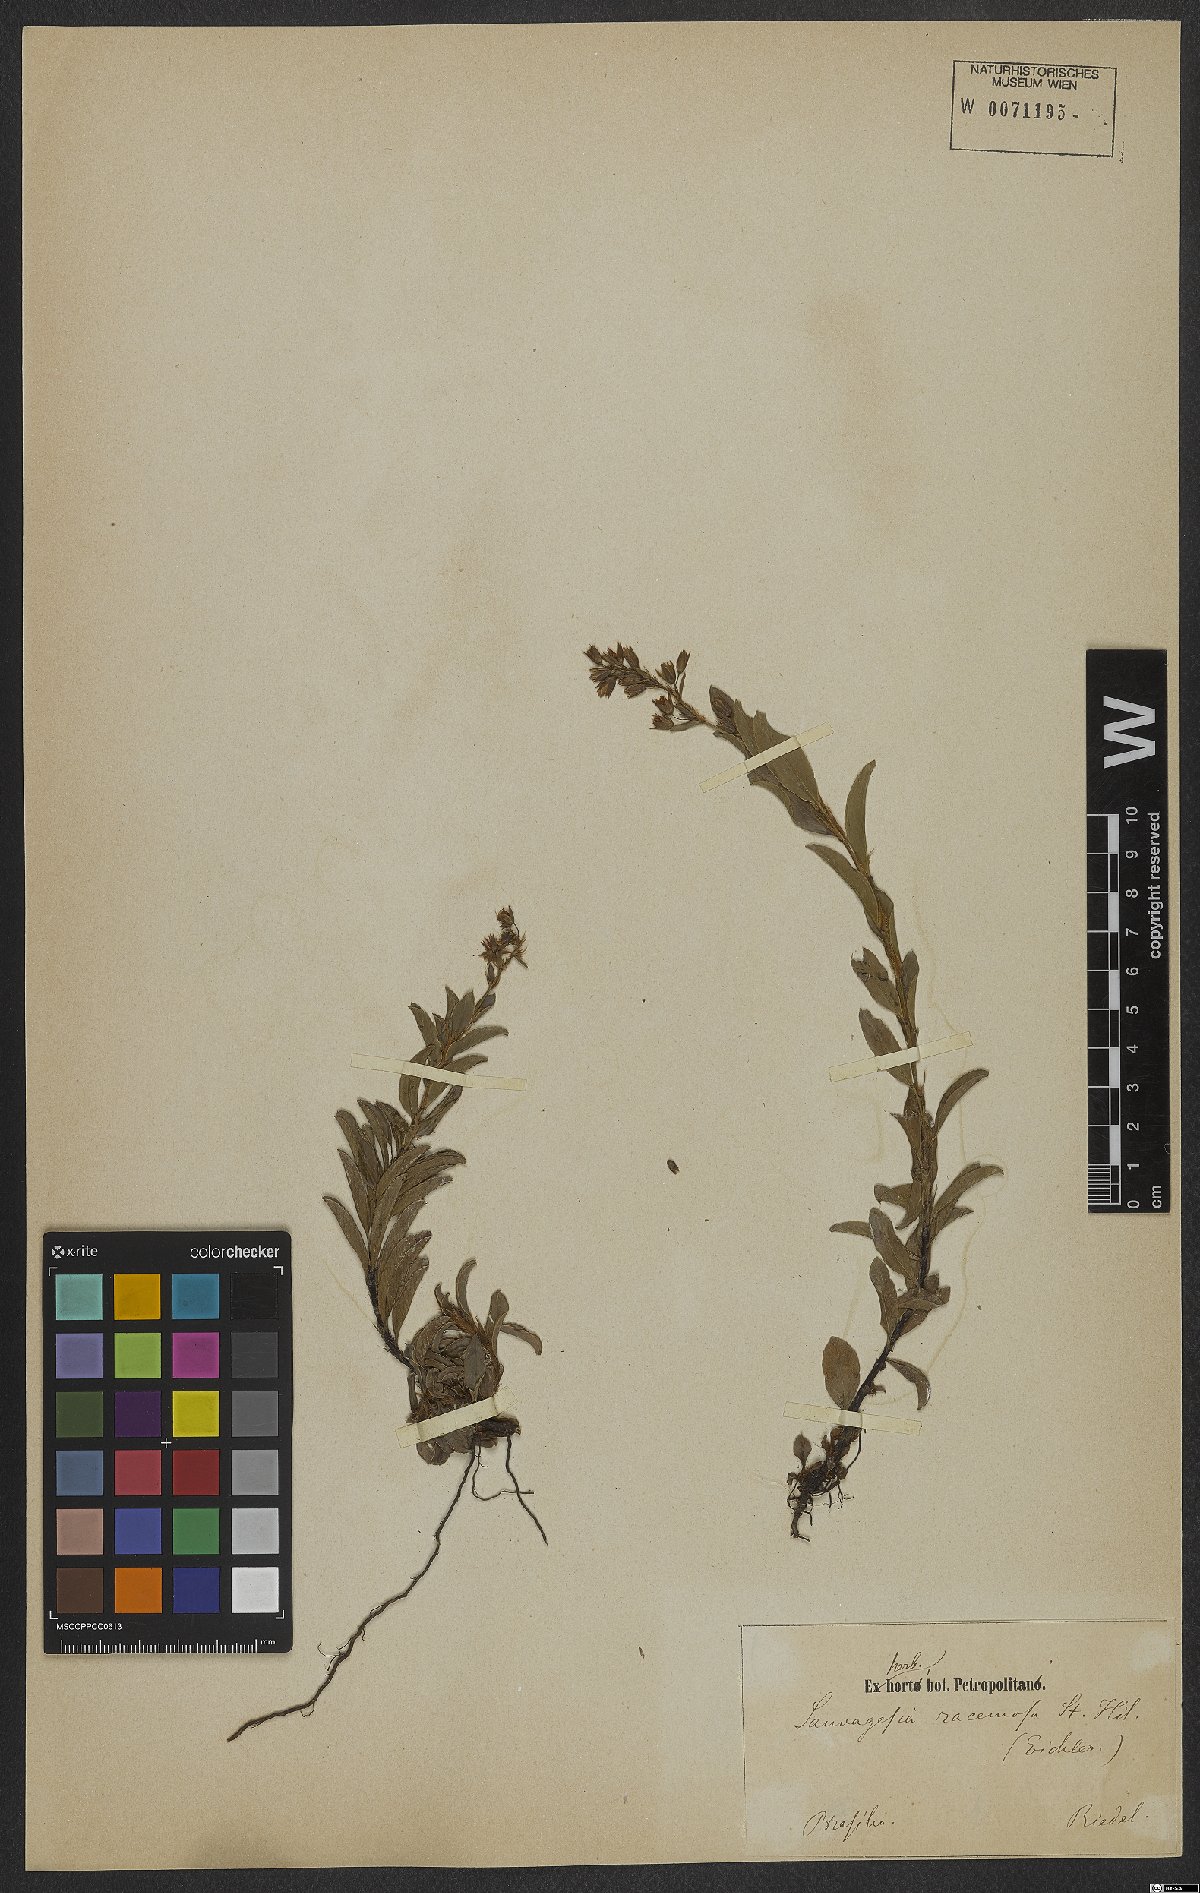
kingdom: Plantae
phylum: Tracheophyta
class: Magnoliopsida
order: Malpighiales
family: Ochnaceae
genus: Sauvagesia
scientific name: Sauvagesia racemosa
